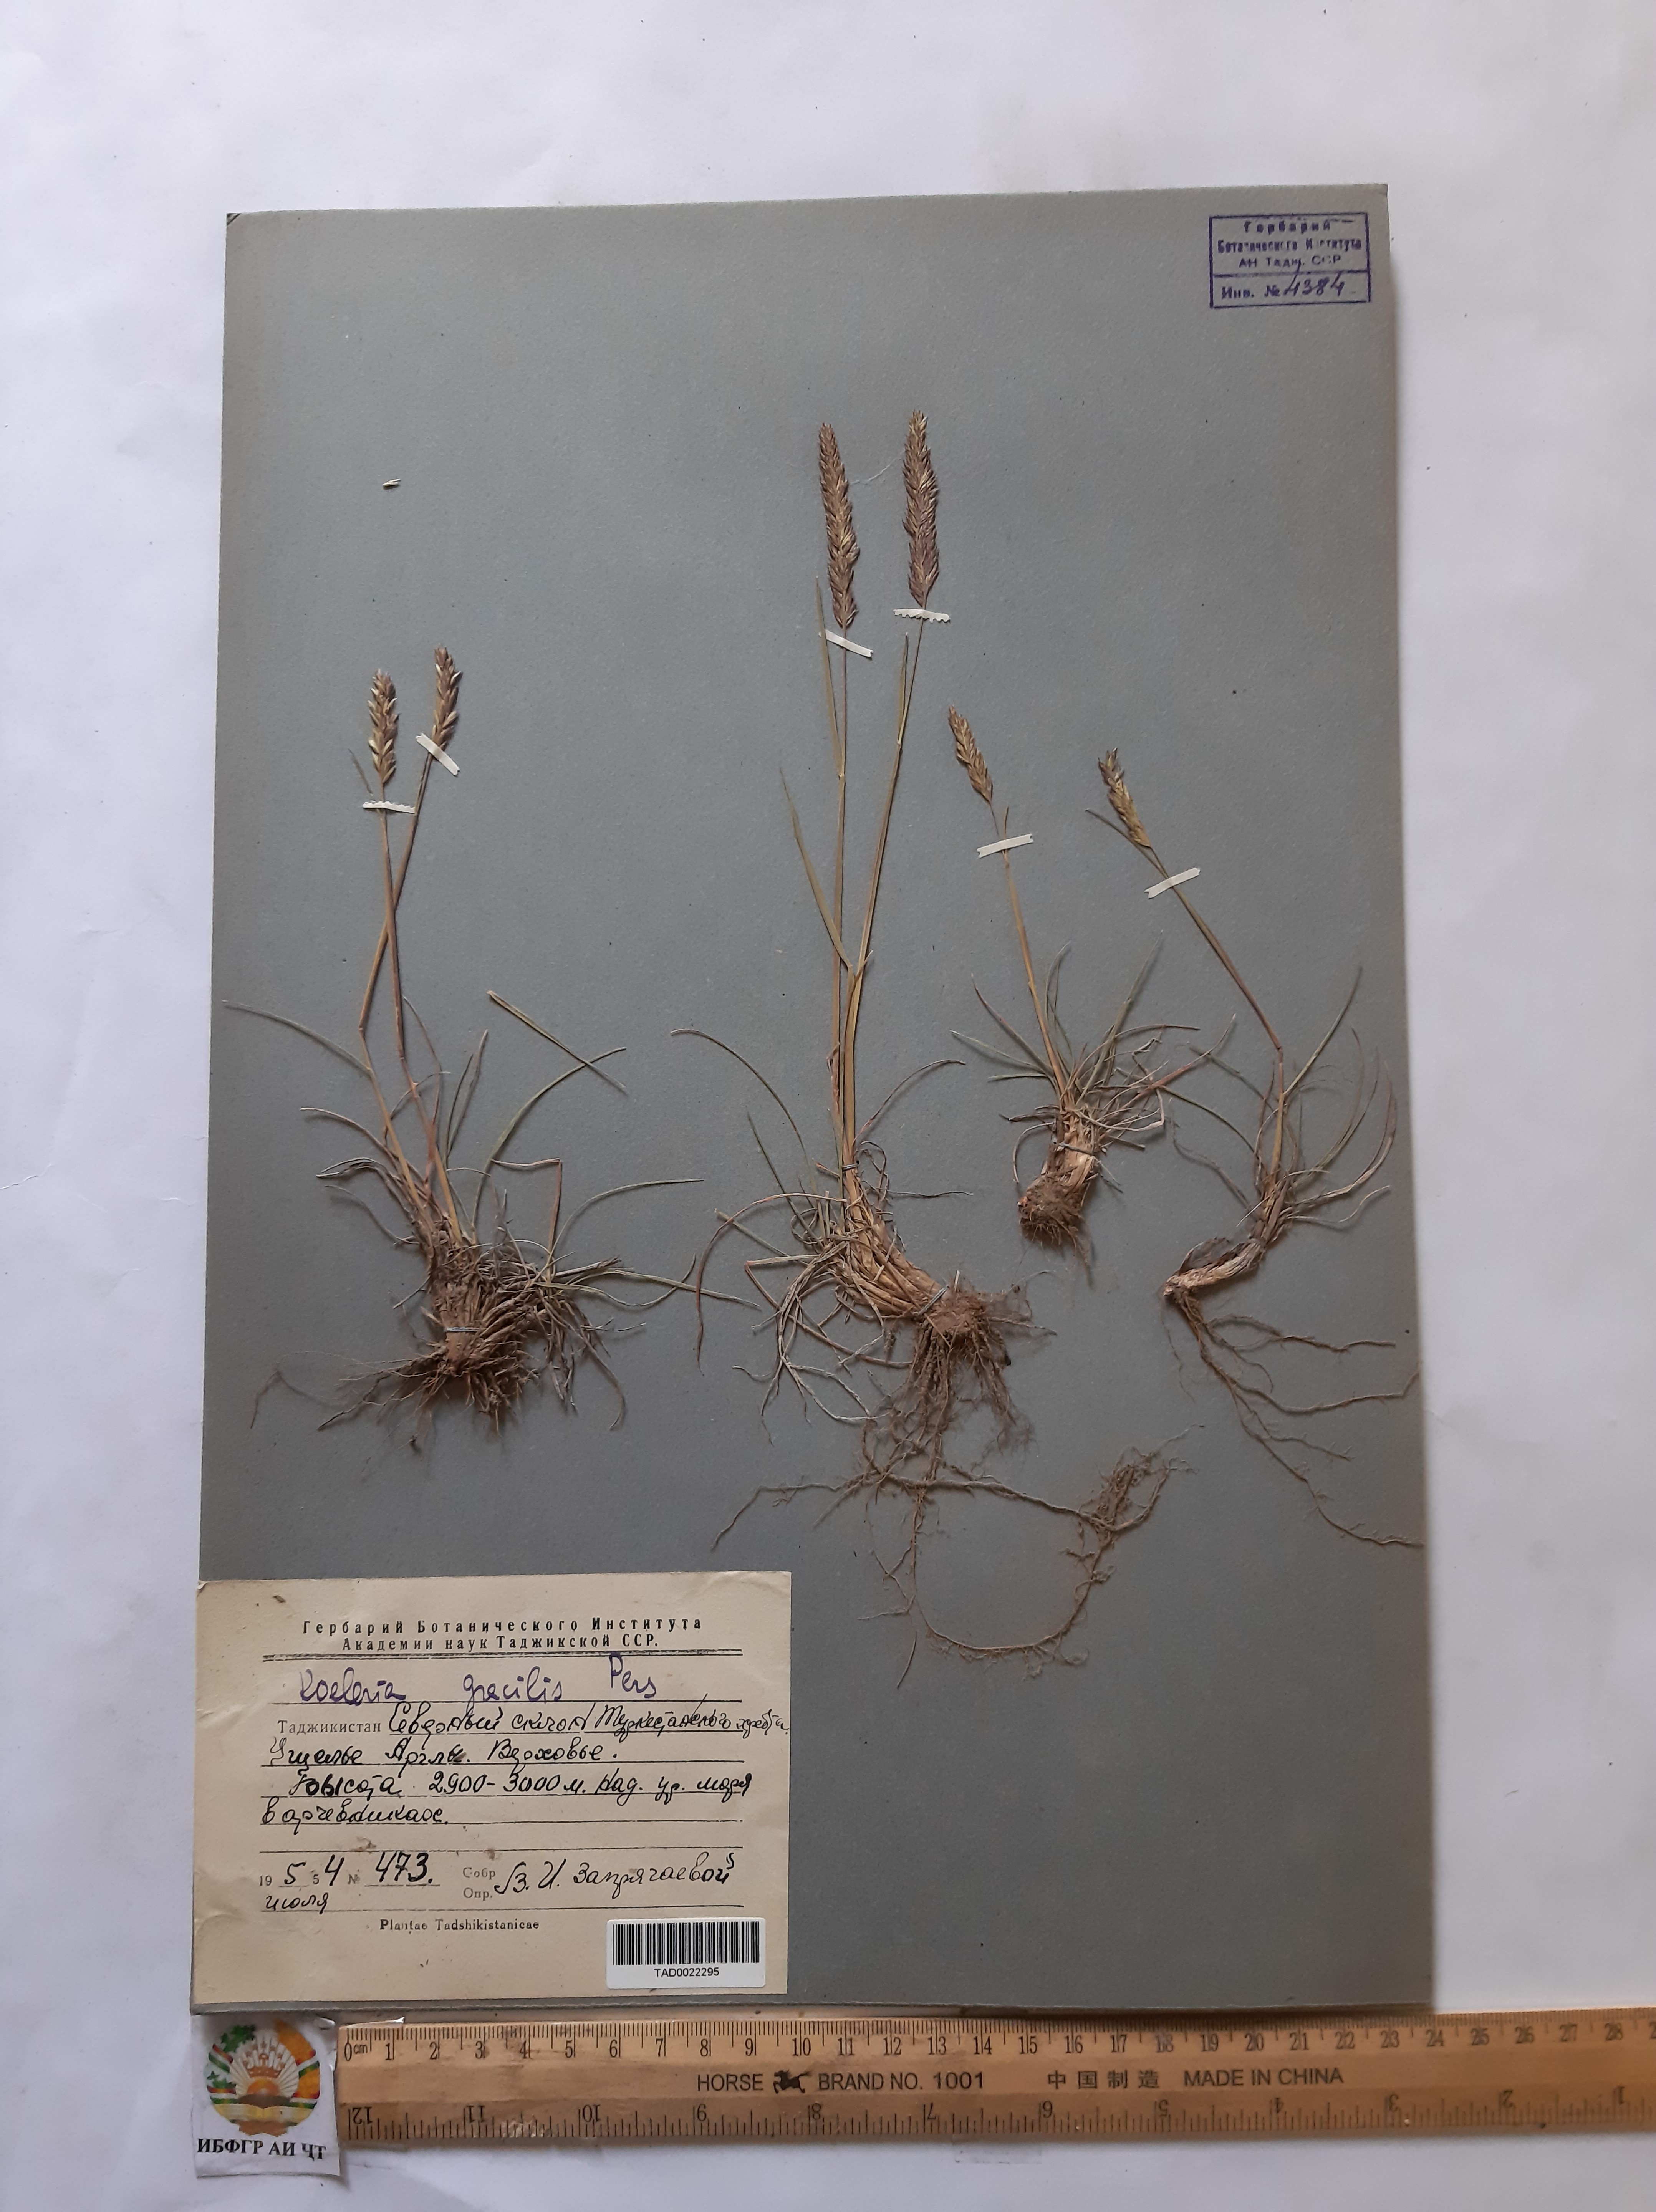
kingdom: Plantae
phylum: Tracheophyta
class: Liliopsida
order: Poales
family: Poaceae
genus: Koeleria
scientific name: Koeleria macrantha
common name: Crested hair-grass
